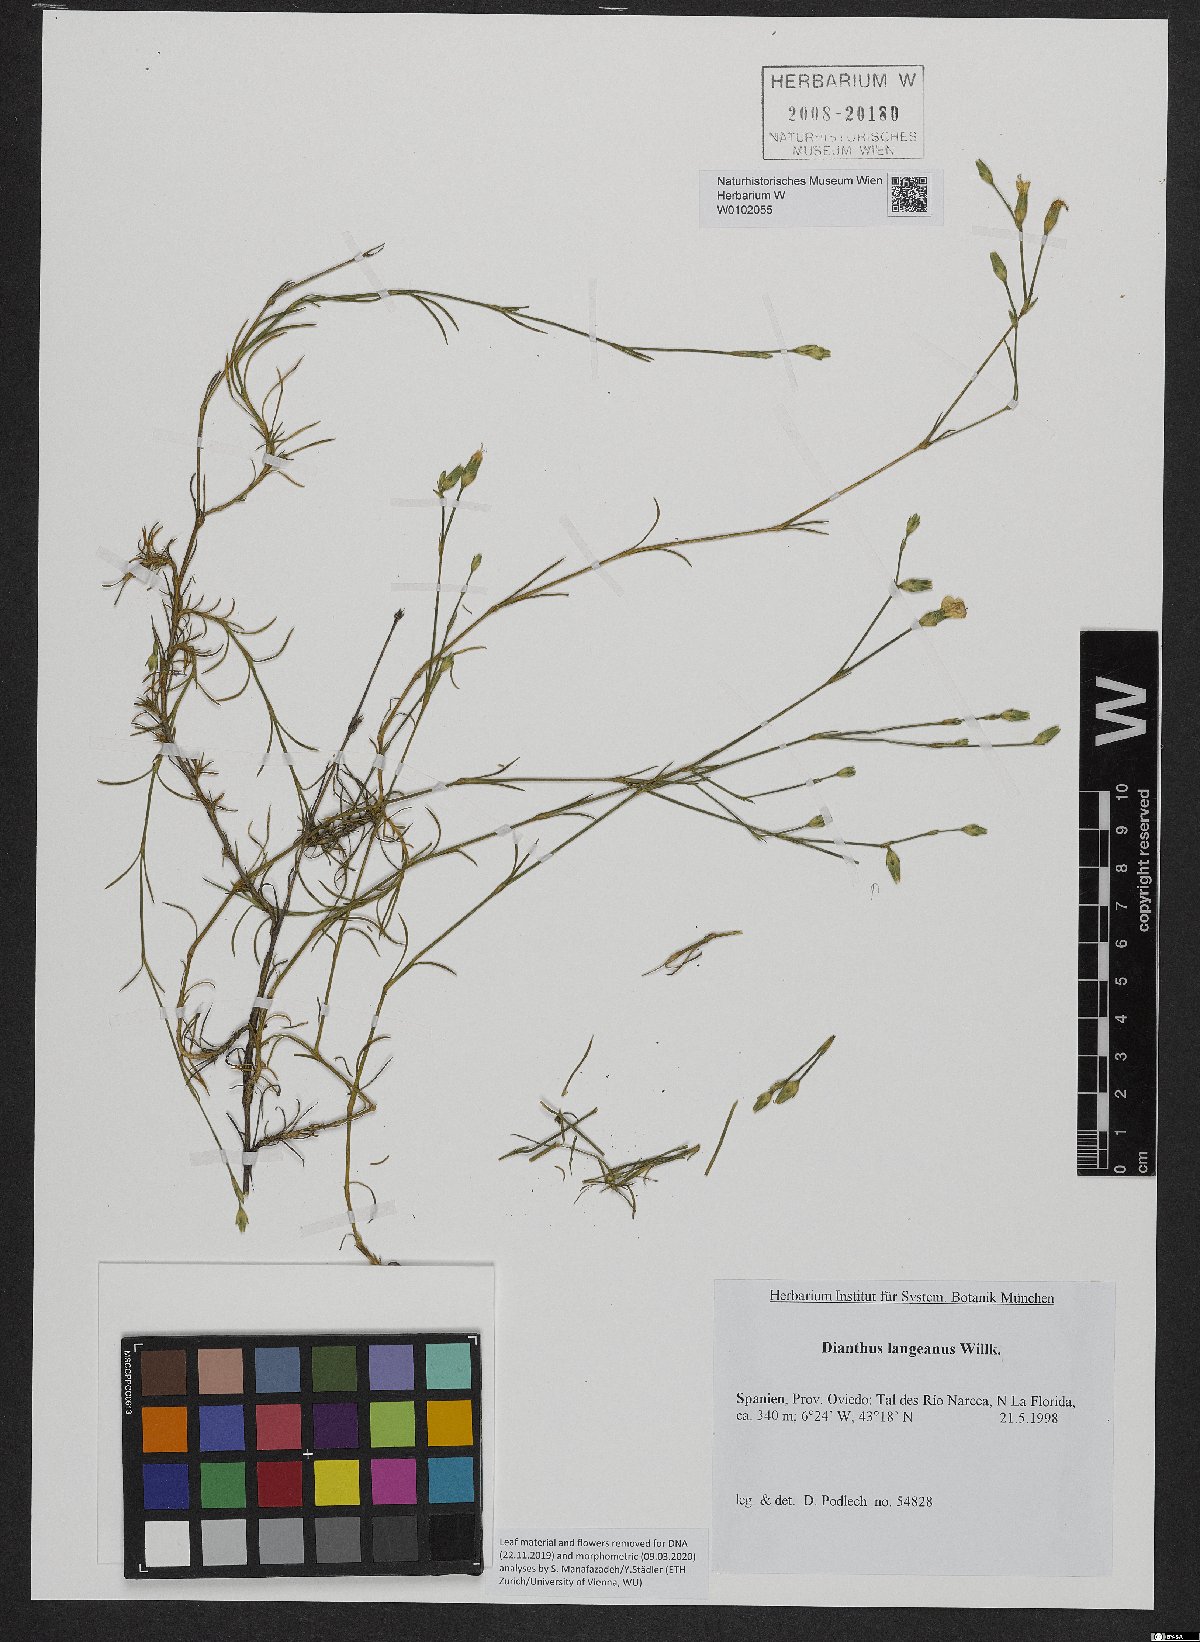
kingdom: Plantae
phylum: Tracheophyta
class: Magnoliopsida
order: Caryophyllales
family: Caryophyllaceae
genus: Dianthus
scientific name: Dianthus langeanus
